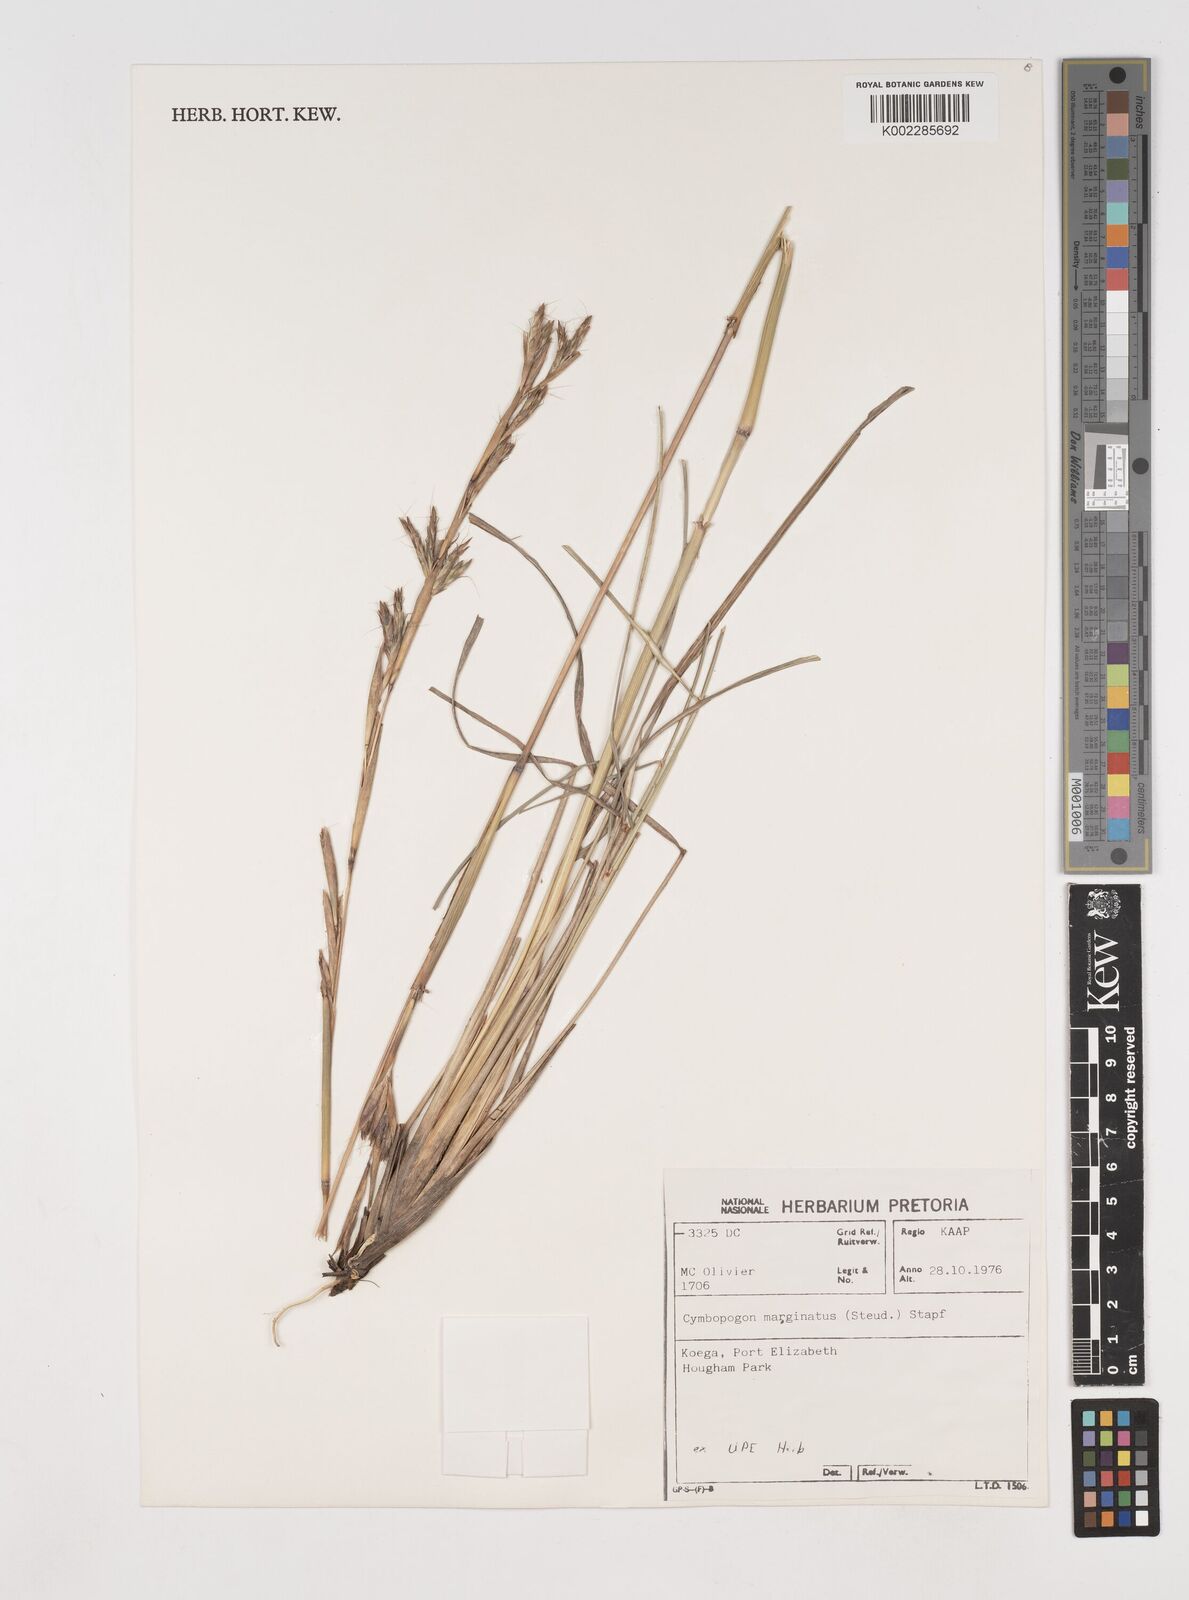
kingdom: Plantae
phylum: Tracheophyta
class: Liliopsida
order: Poales
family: Poaceae
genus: Cymbopogon
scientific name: Cymbopogon marginatus
